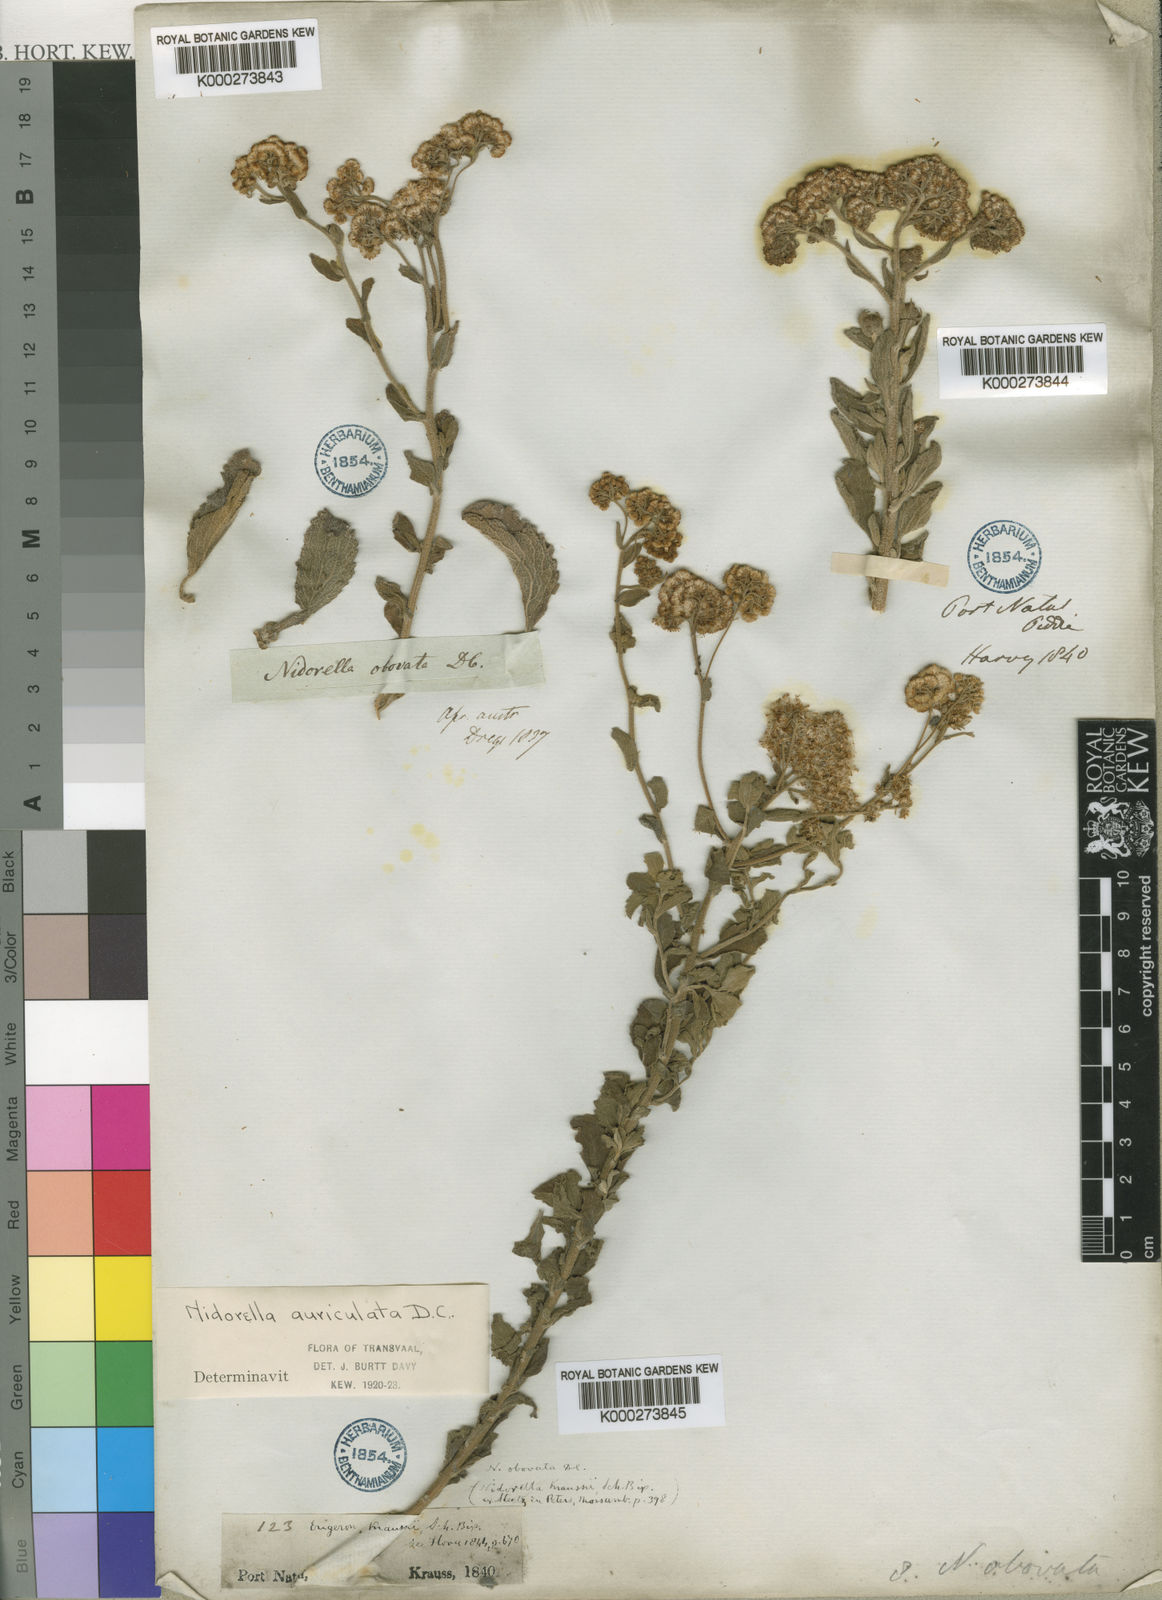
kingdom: Plantae
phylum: Tracheophyta
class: Magnoliopsida
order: Asterales
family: Asteraceae
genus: Nidorella
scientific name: Nidorella auriculata
